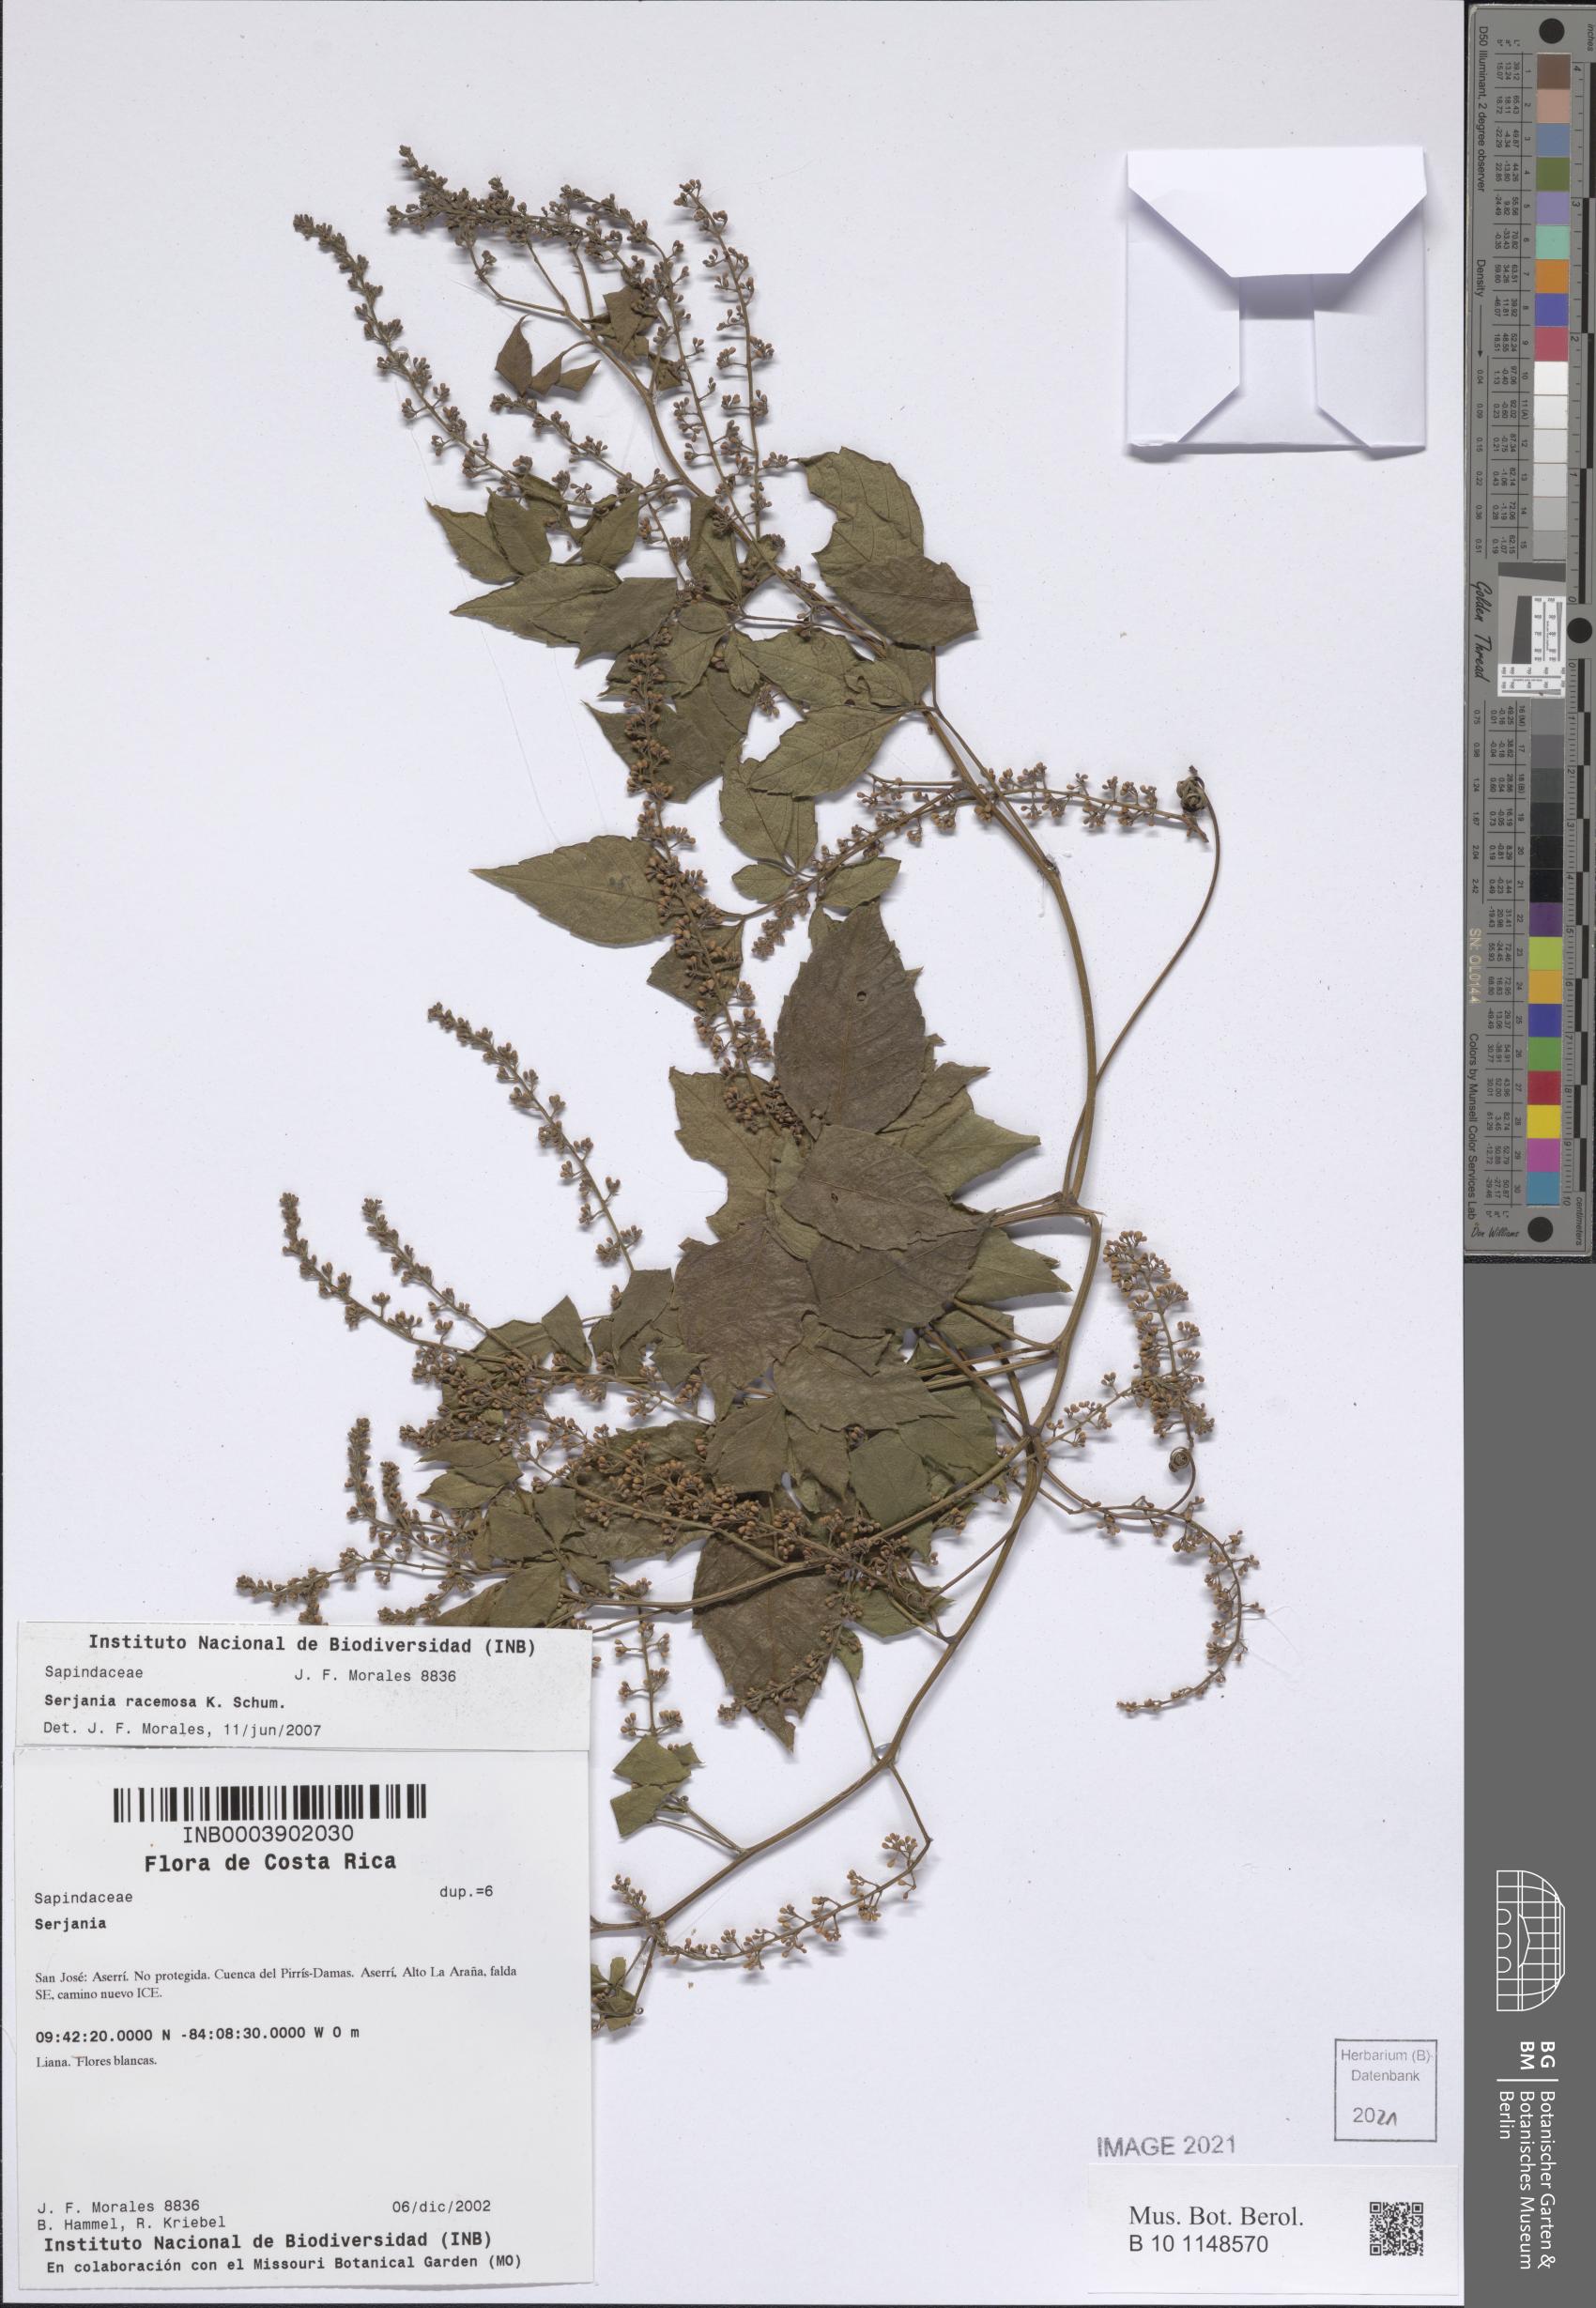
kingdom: Plantae
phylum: Tracheophyta
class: Magnoliopsida
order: Sapindales
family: Sapindaceae
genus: Serjania
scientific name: Serjania racemosa
